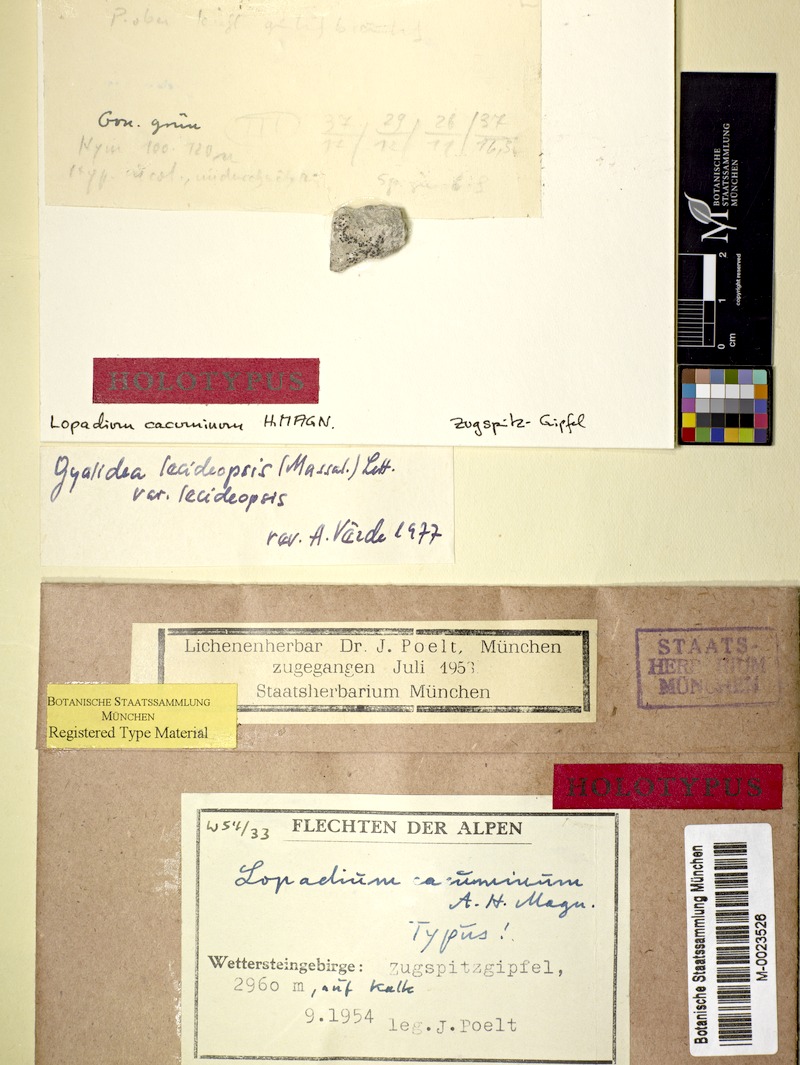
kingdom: Fungi
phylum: Ascomycota
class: Lecanoromycetes
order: Ostropales
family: Graphidaceae
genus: Gyalidea
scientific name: Gyalidea lecideopsis
